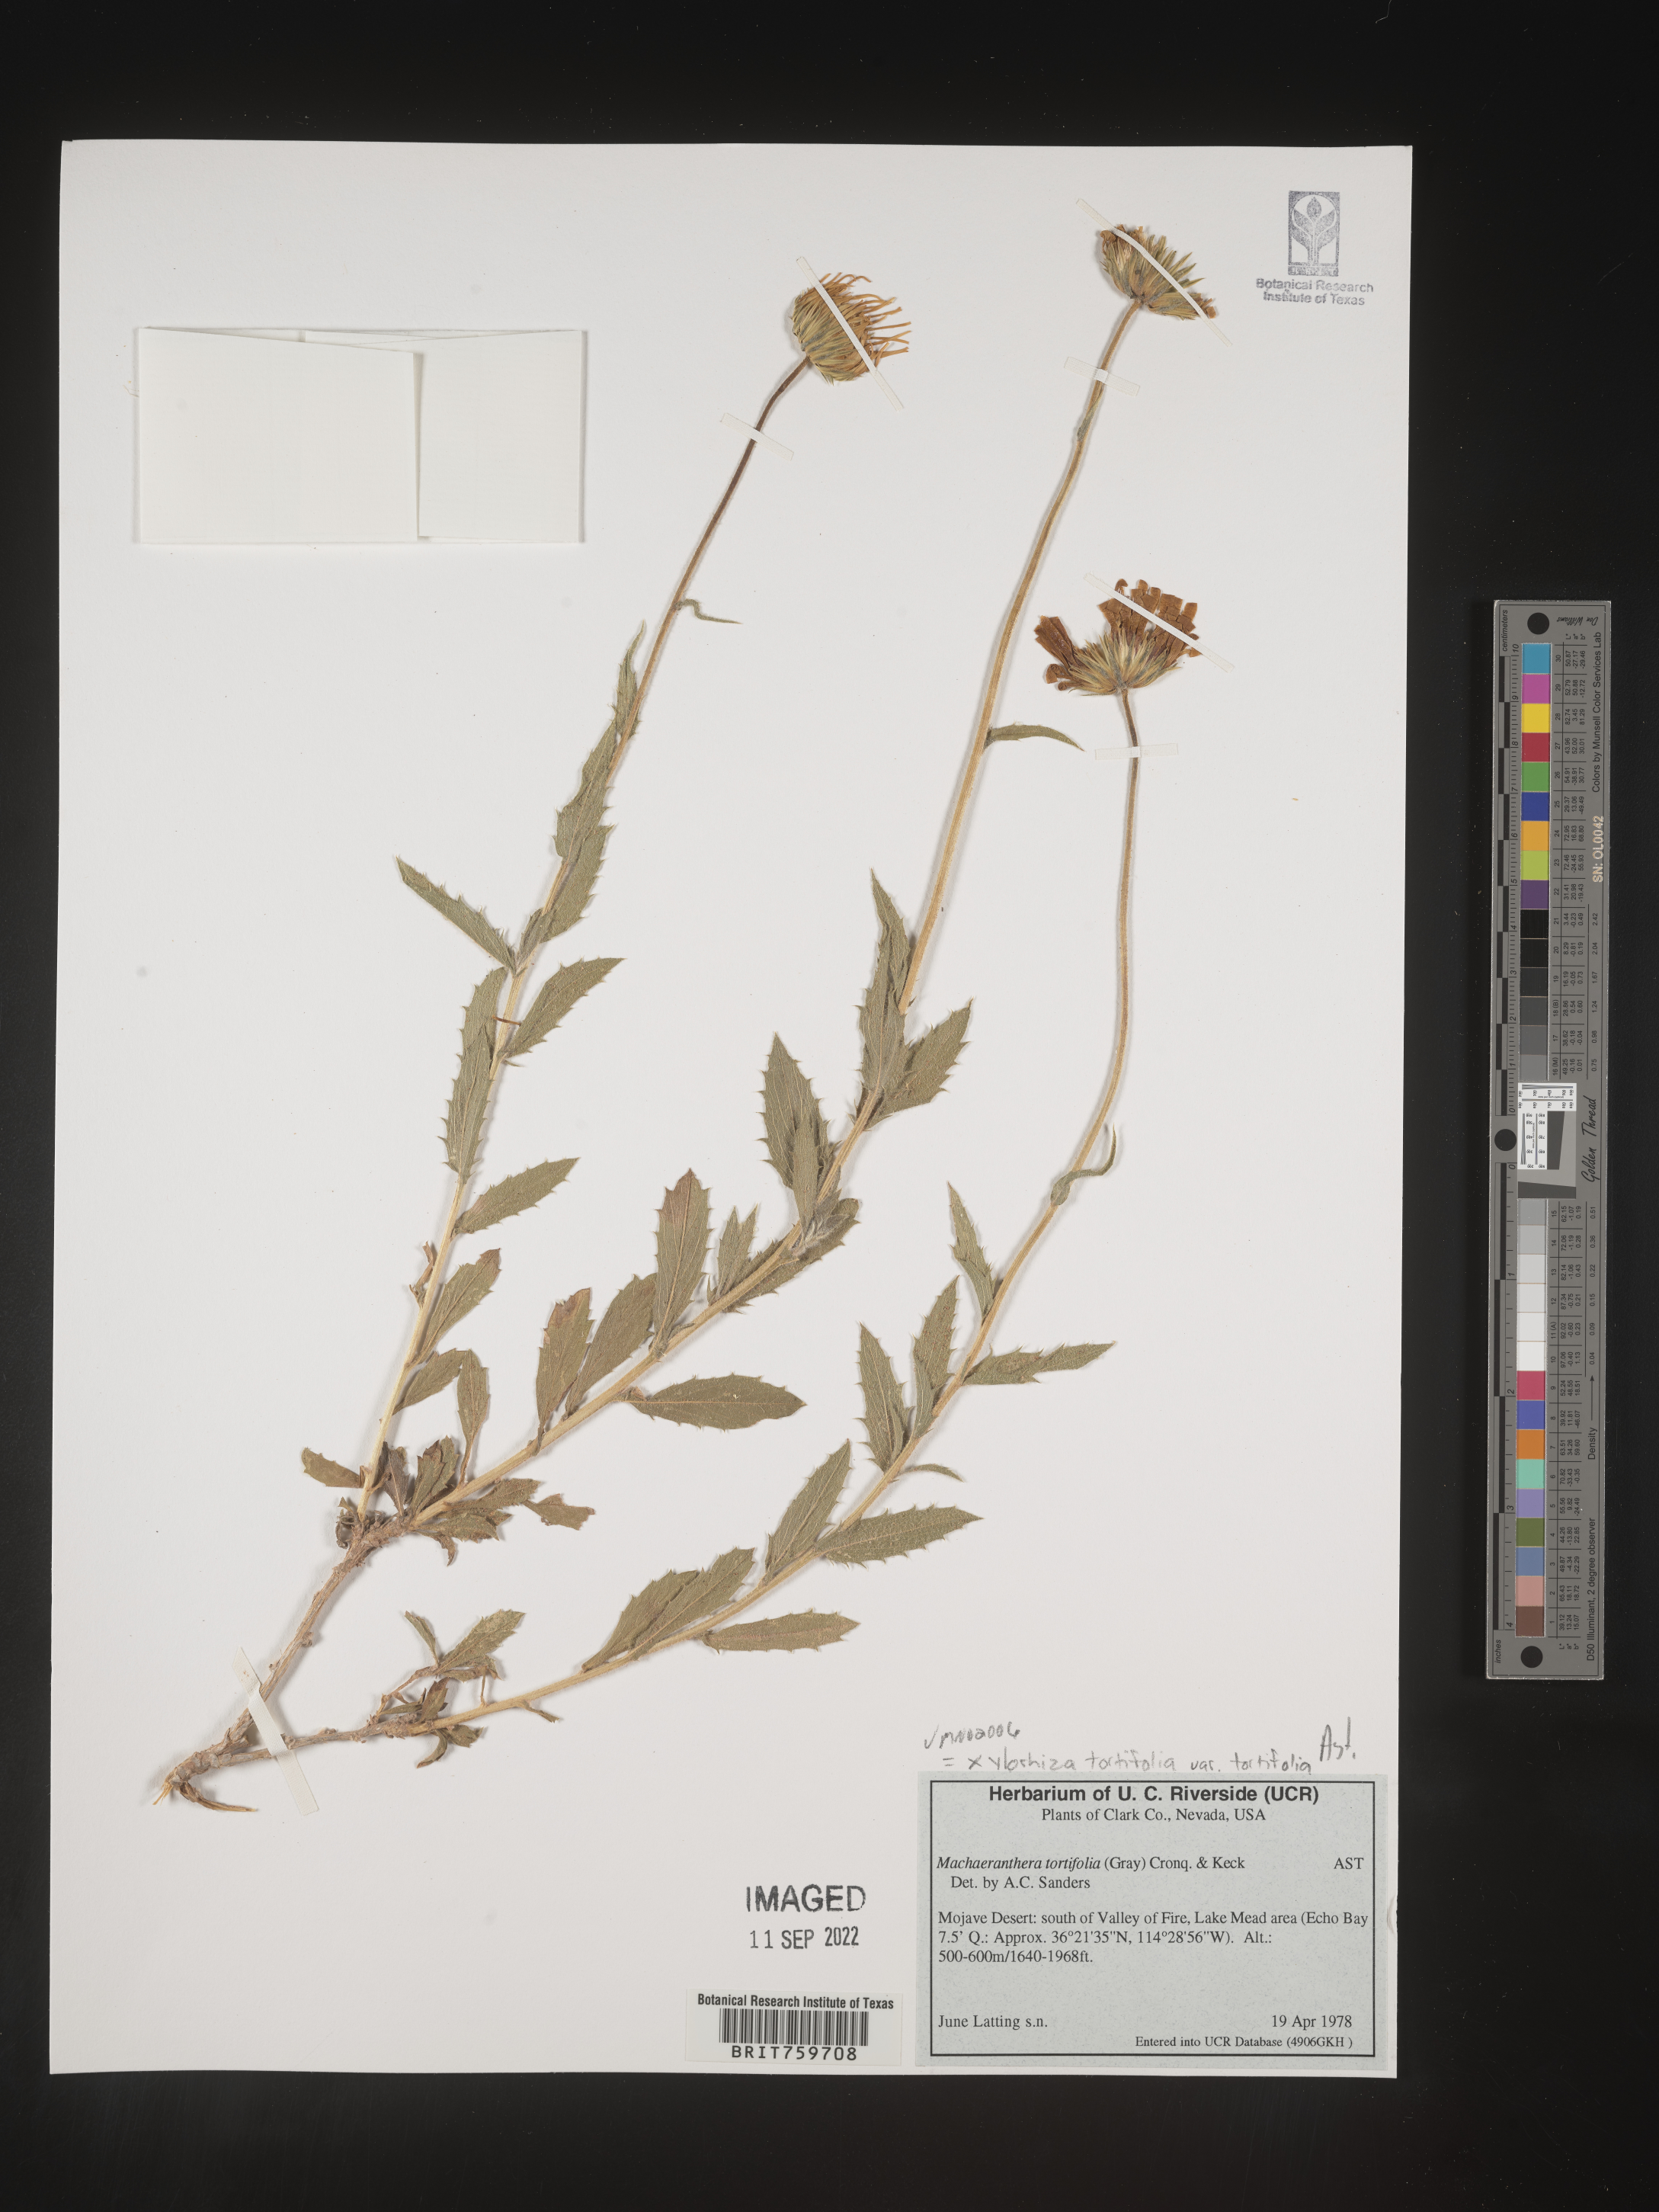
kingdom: Plantae
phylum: Tracheophyta
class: Magnoliopsida
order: Asterales
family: Asteraceae
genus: Xylorhiza
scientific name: Xylorhiza tortifolia
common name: Hurt-leaf woody-aster
